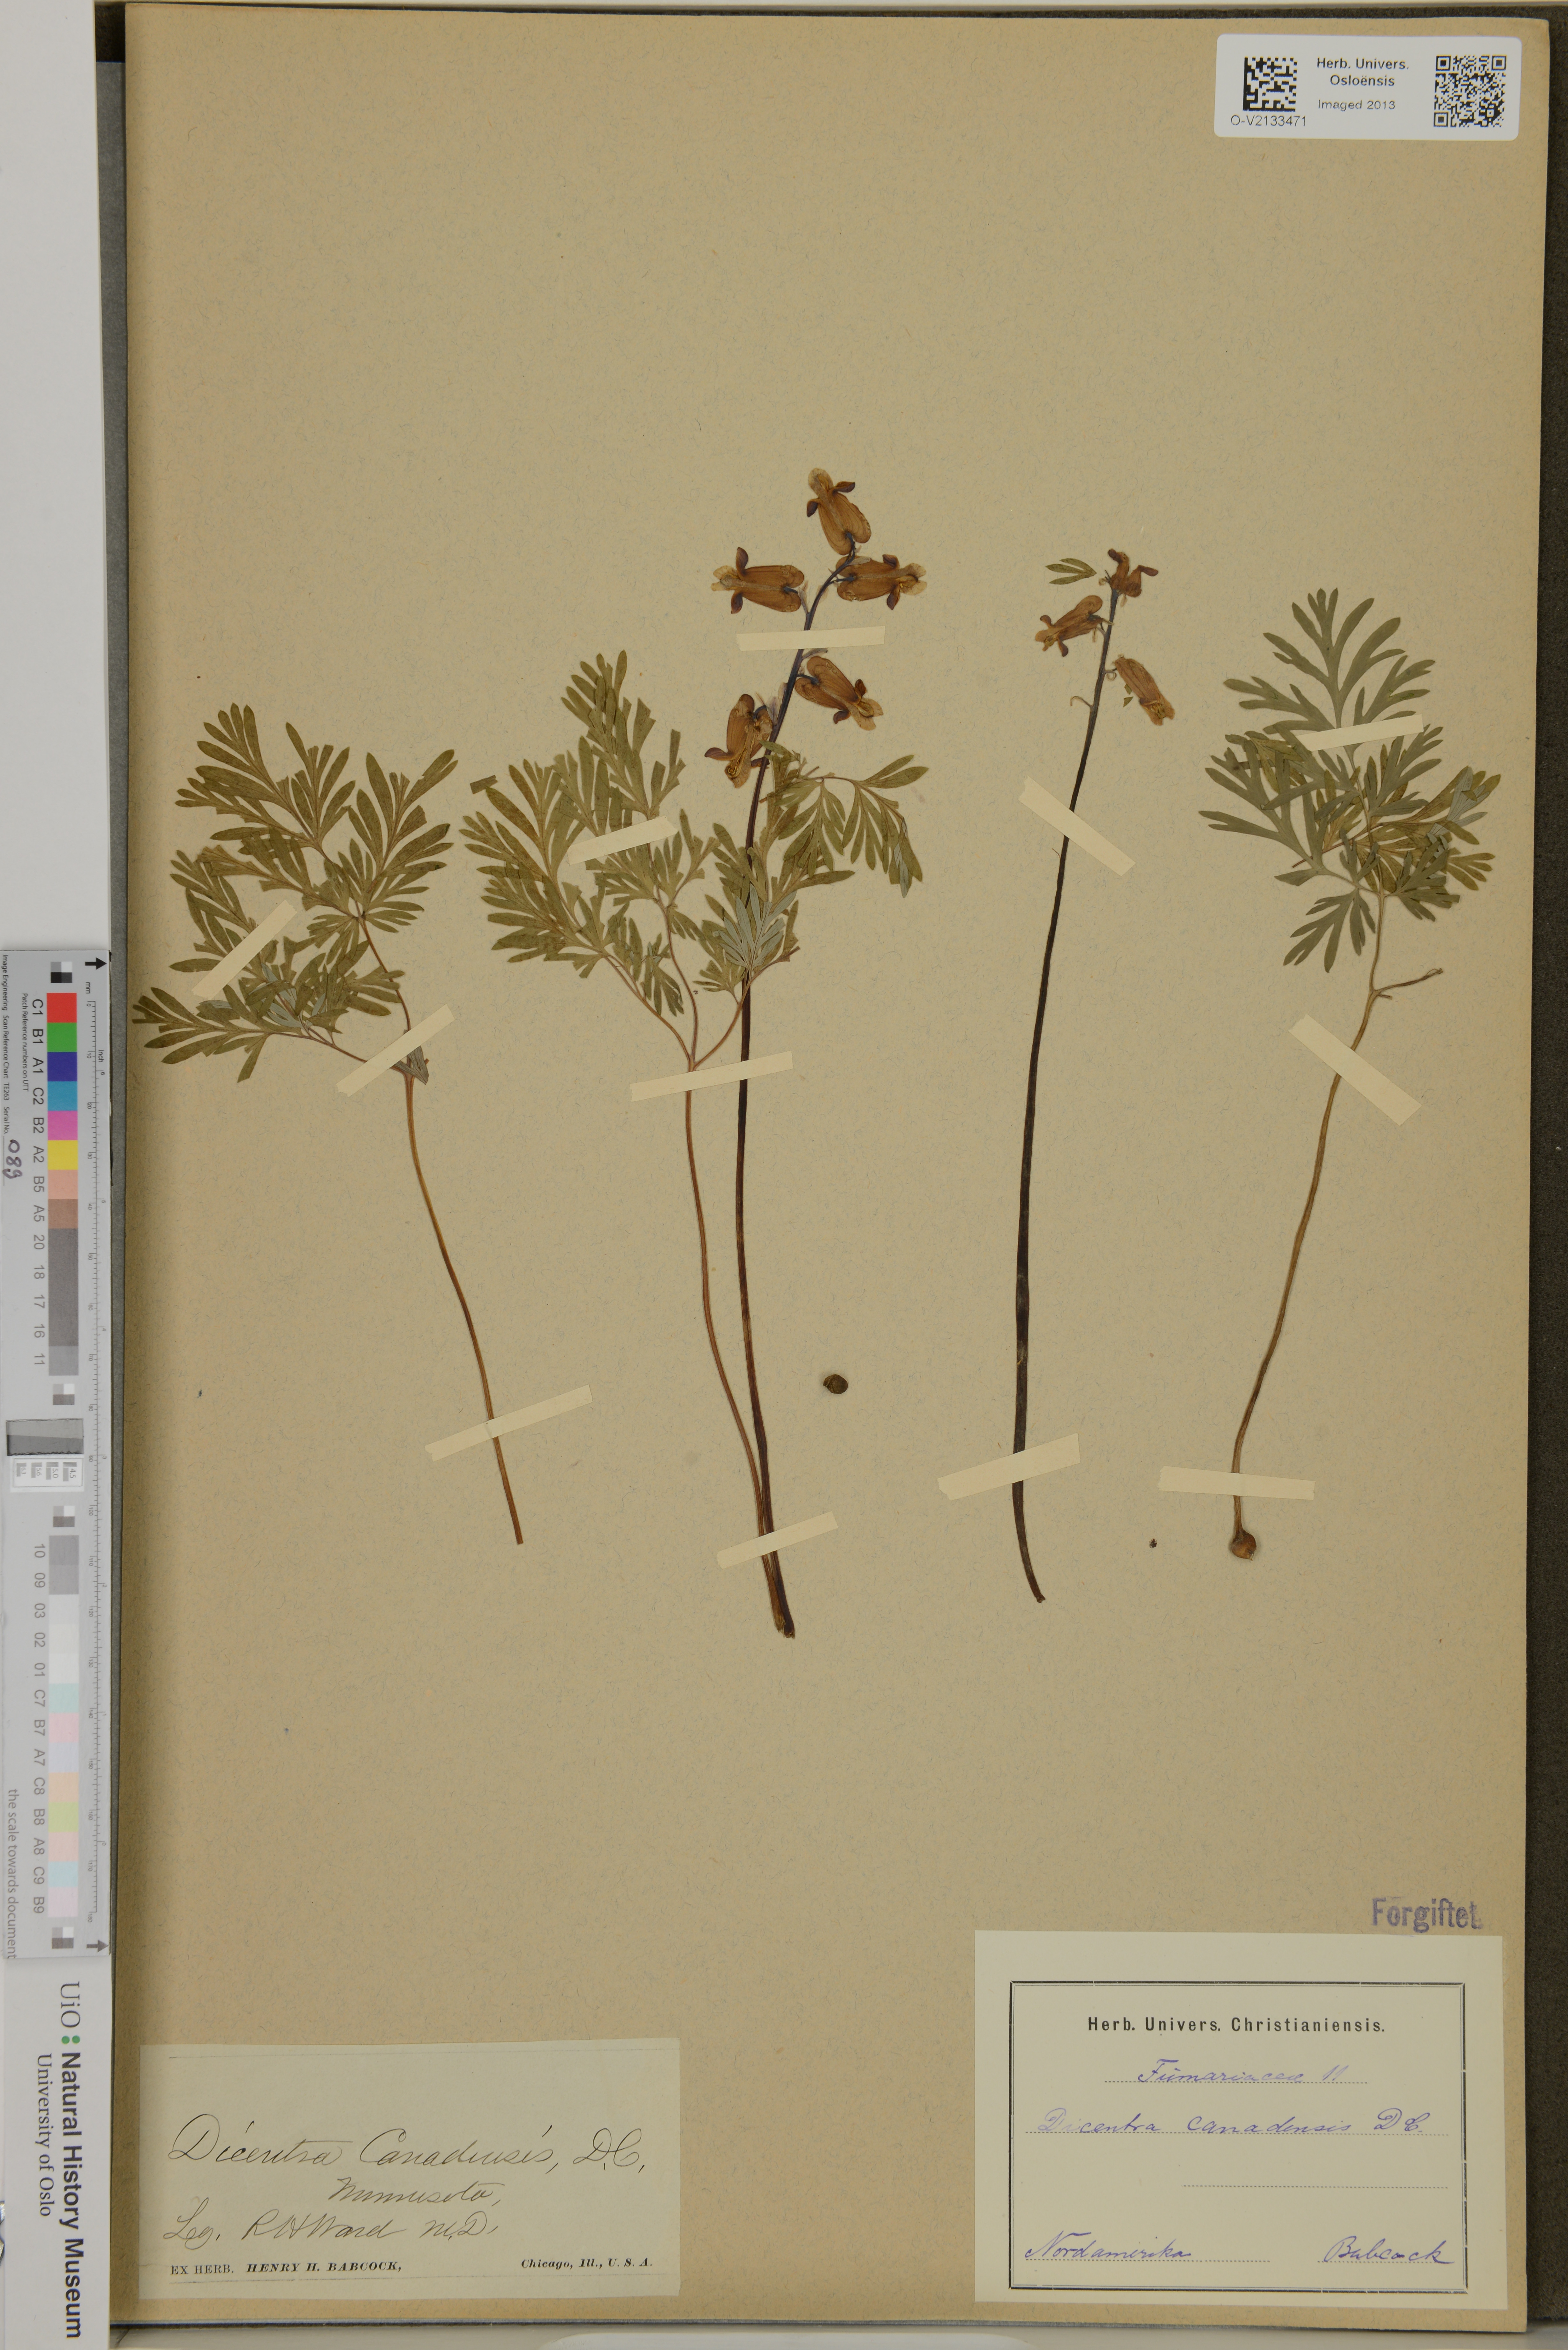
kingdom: Plantae
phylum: Tracheophyta
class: Magnoliopsida
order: Ranunculales
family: Papaveraceae
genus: Dicentra
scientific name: Dicentra canadensis
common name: Squirrel-corn
